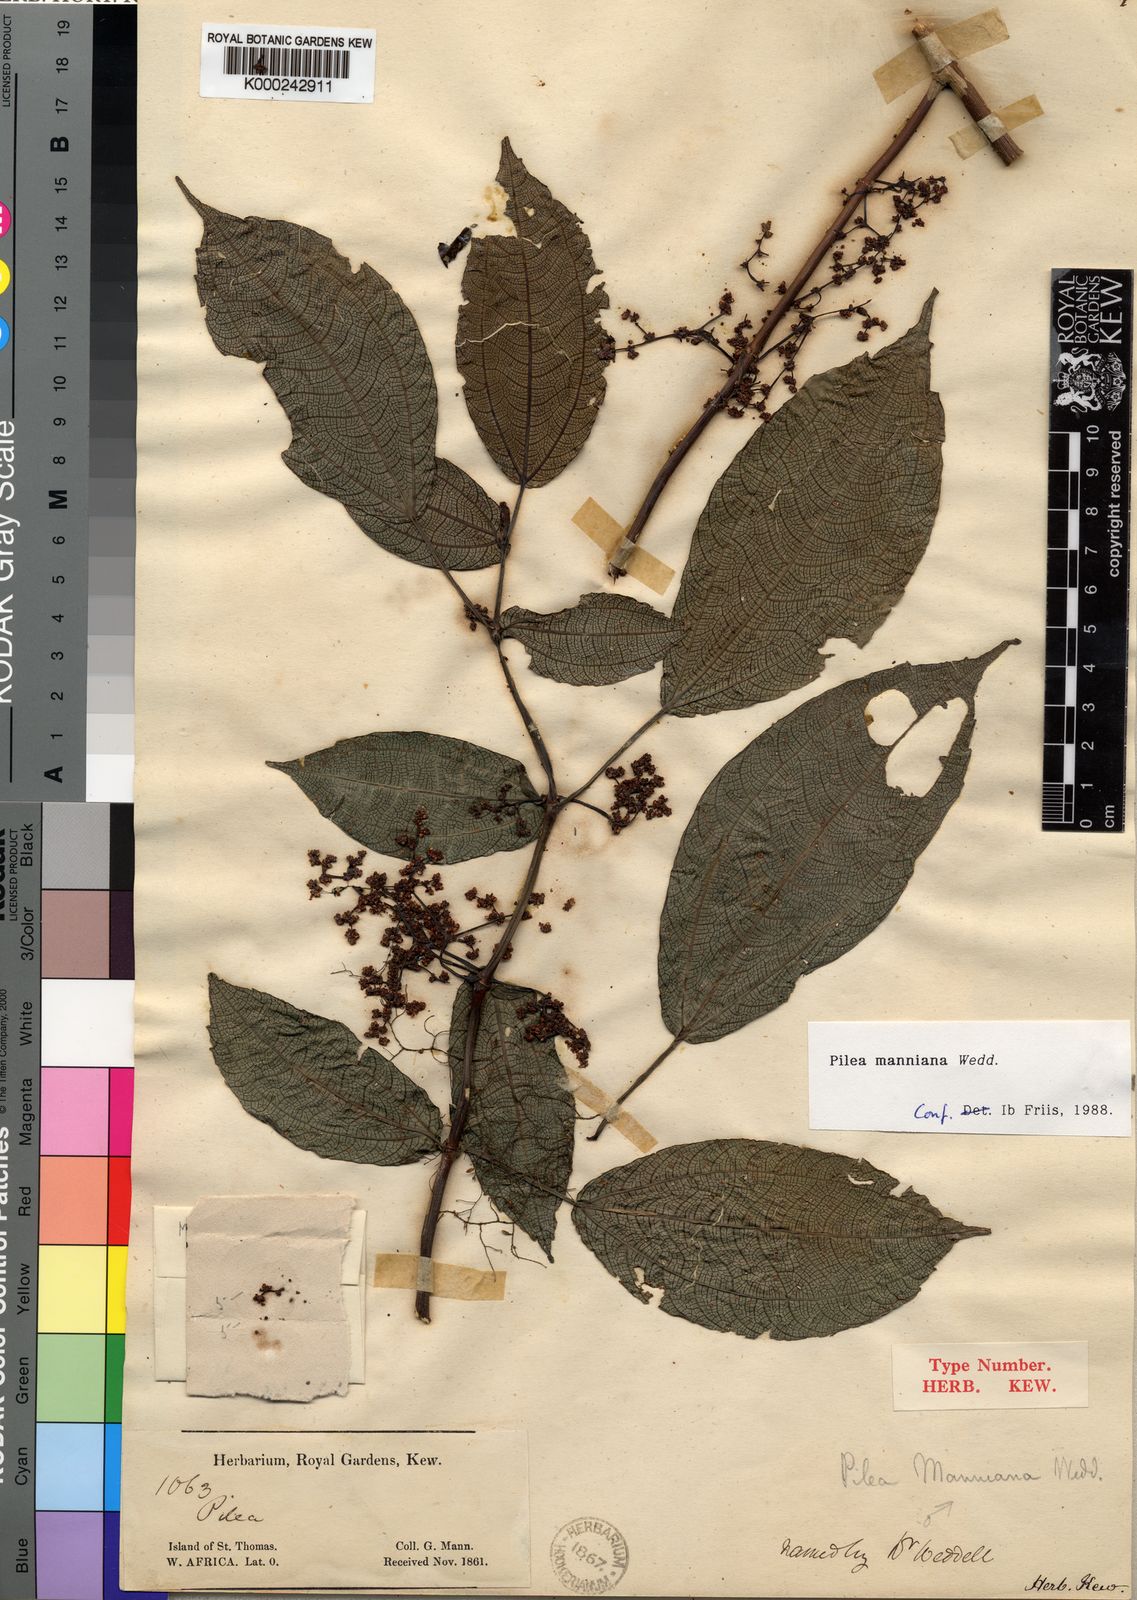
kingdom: Plantae
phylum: Tracheophyta
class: Magnoliopsida
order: Rosales
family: Urticaceae
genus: Pilea
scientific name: Pilea manniana
